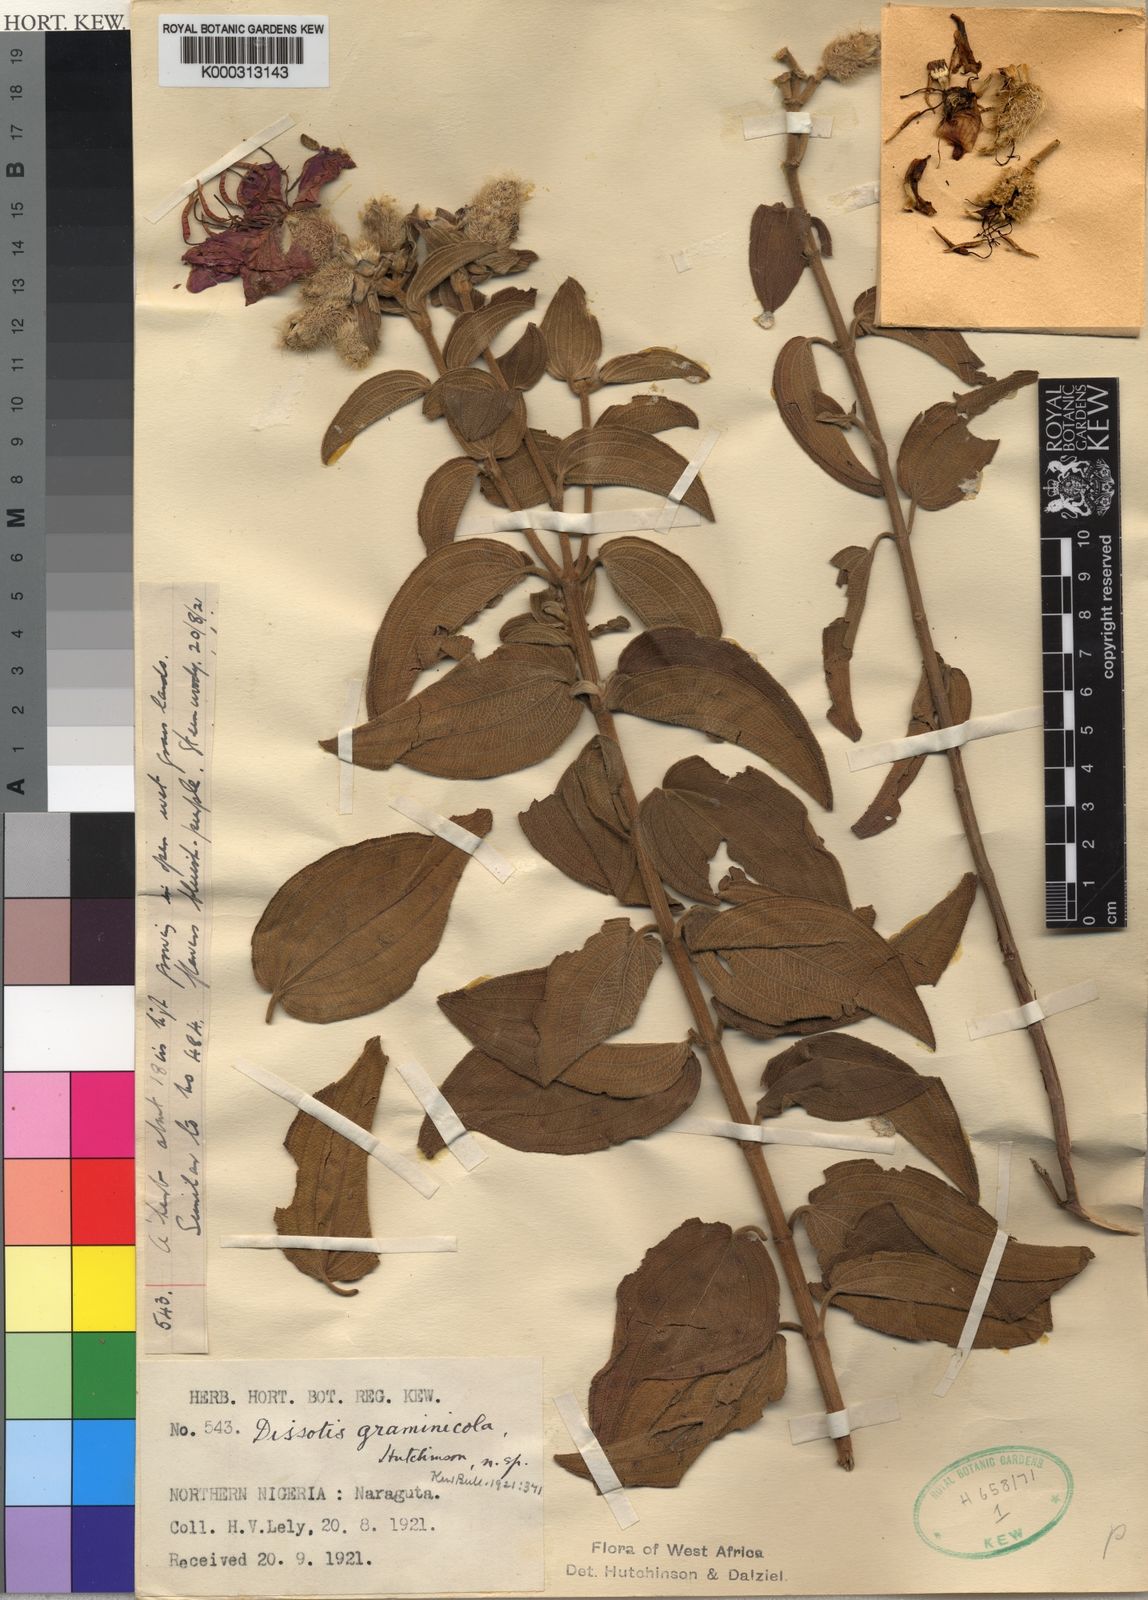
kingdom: Plantae
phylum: Tracheophyta
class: Magnoliopsida
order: Myrtales
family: Melastomataceae
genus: Rosettea
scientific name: Rosettea scabra
